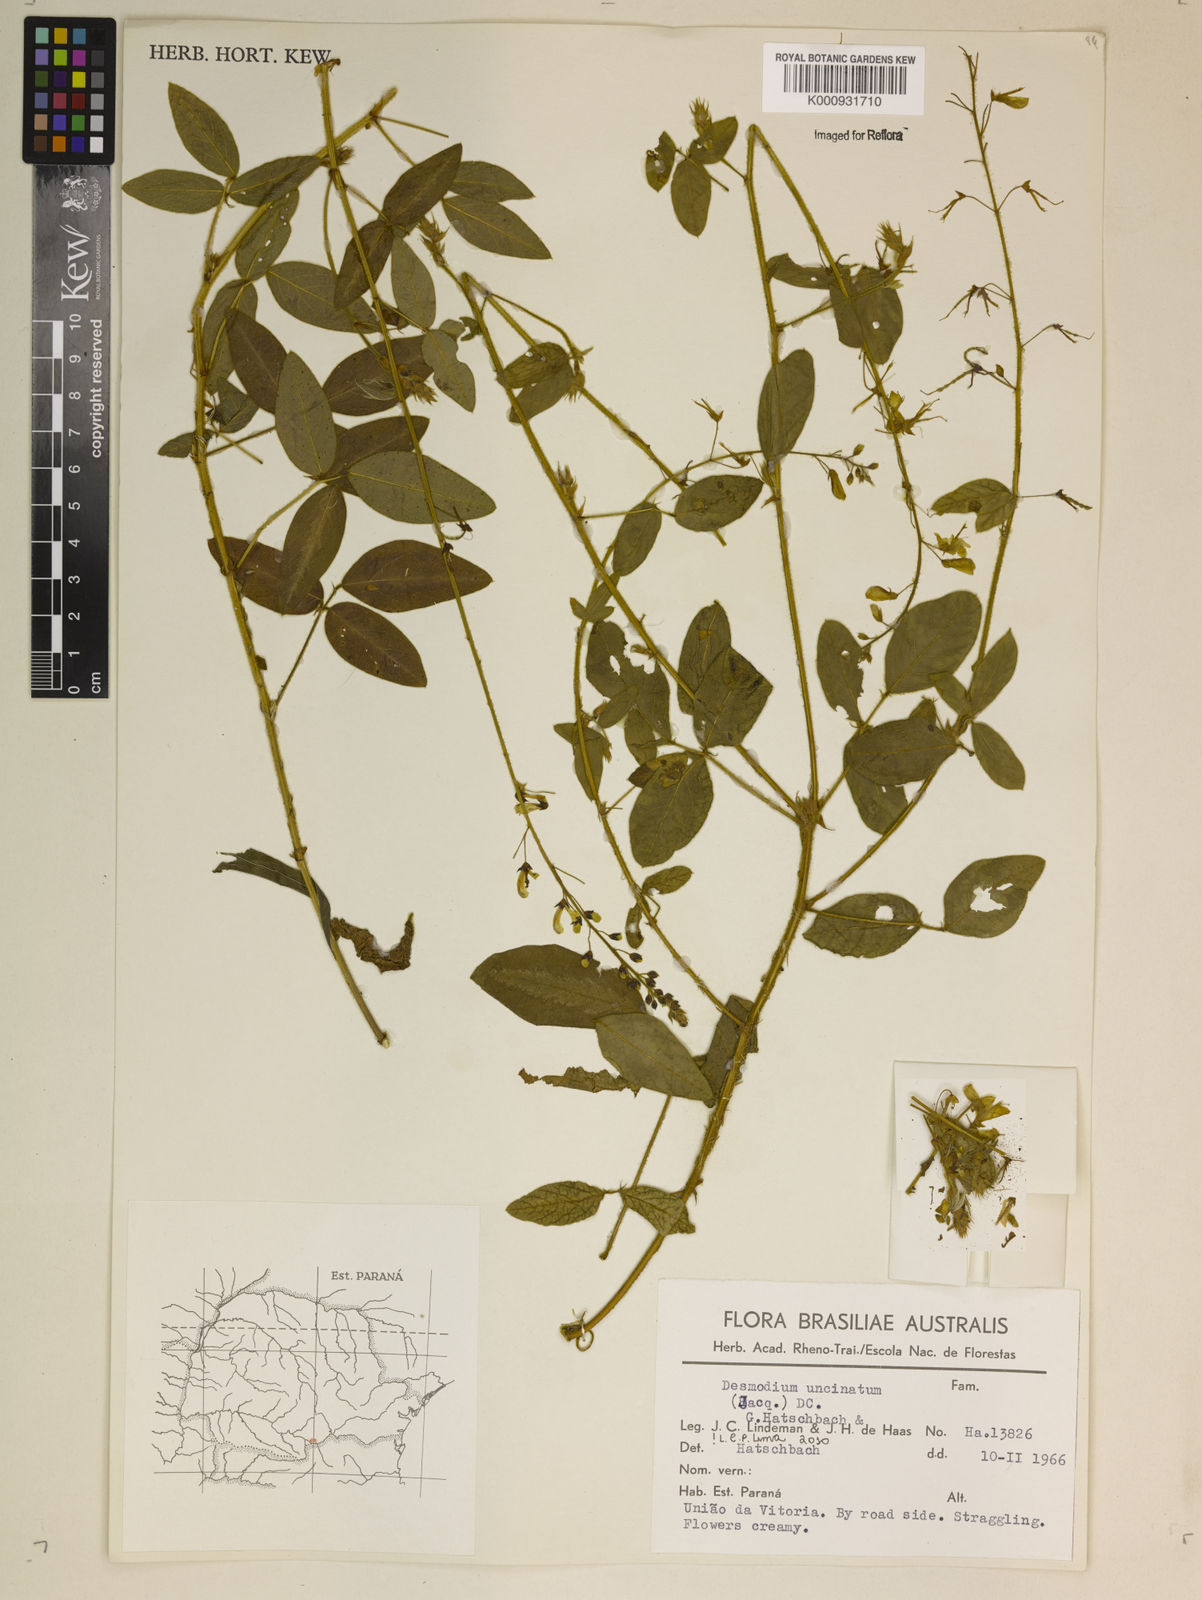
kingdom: Plantae
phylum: Tracheophyta
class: Magnoliopsida
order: Fabales
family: Fabaceae
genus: Desmodium
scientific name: Desmodium uncinatum
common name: Silverleaf desmodium
